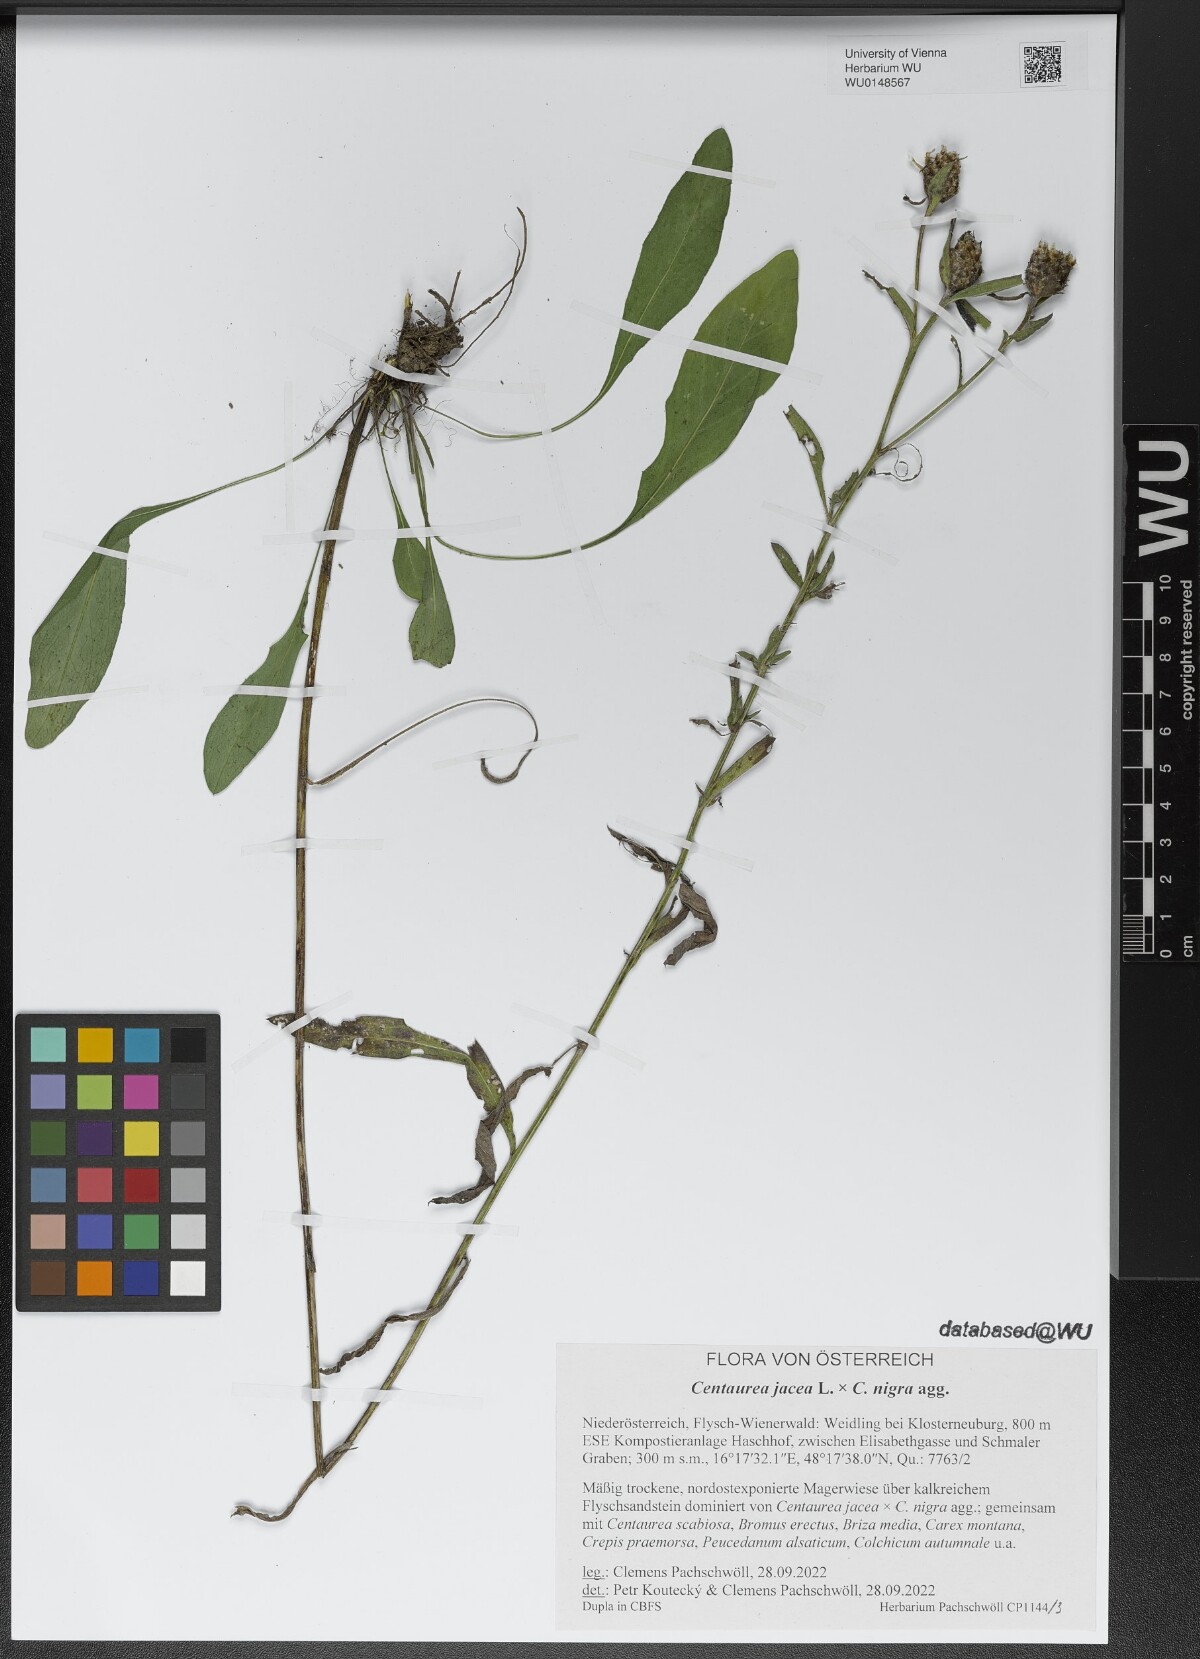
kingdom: Plantae
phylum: Tracheophyta
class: Magnoliopsida
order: Asterales
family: Asteraceae
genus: Centaurea
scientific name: Centaurea
